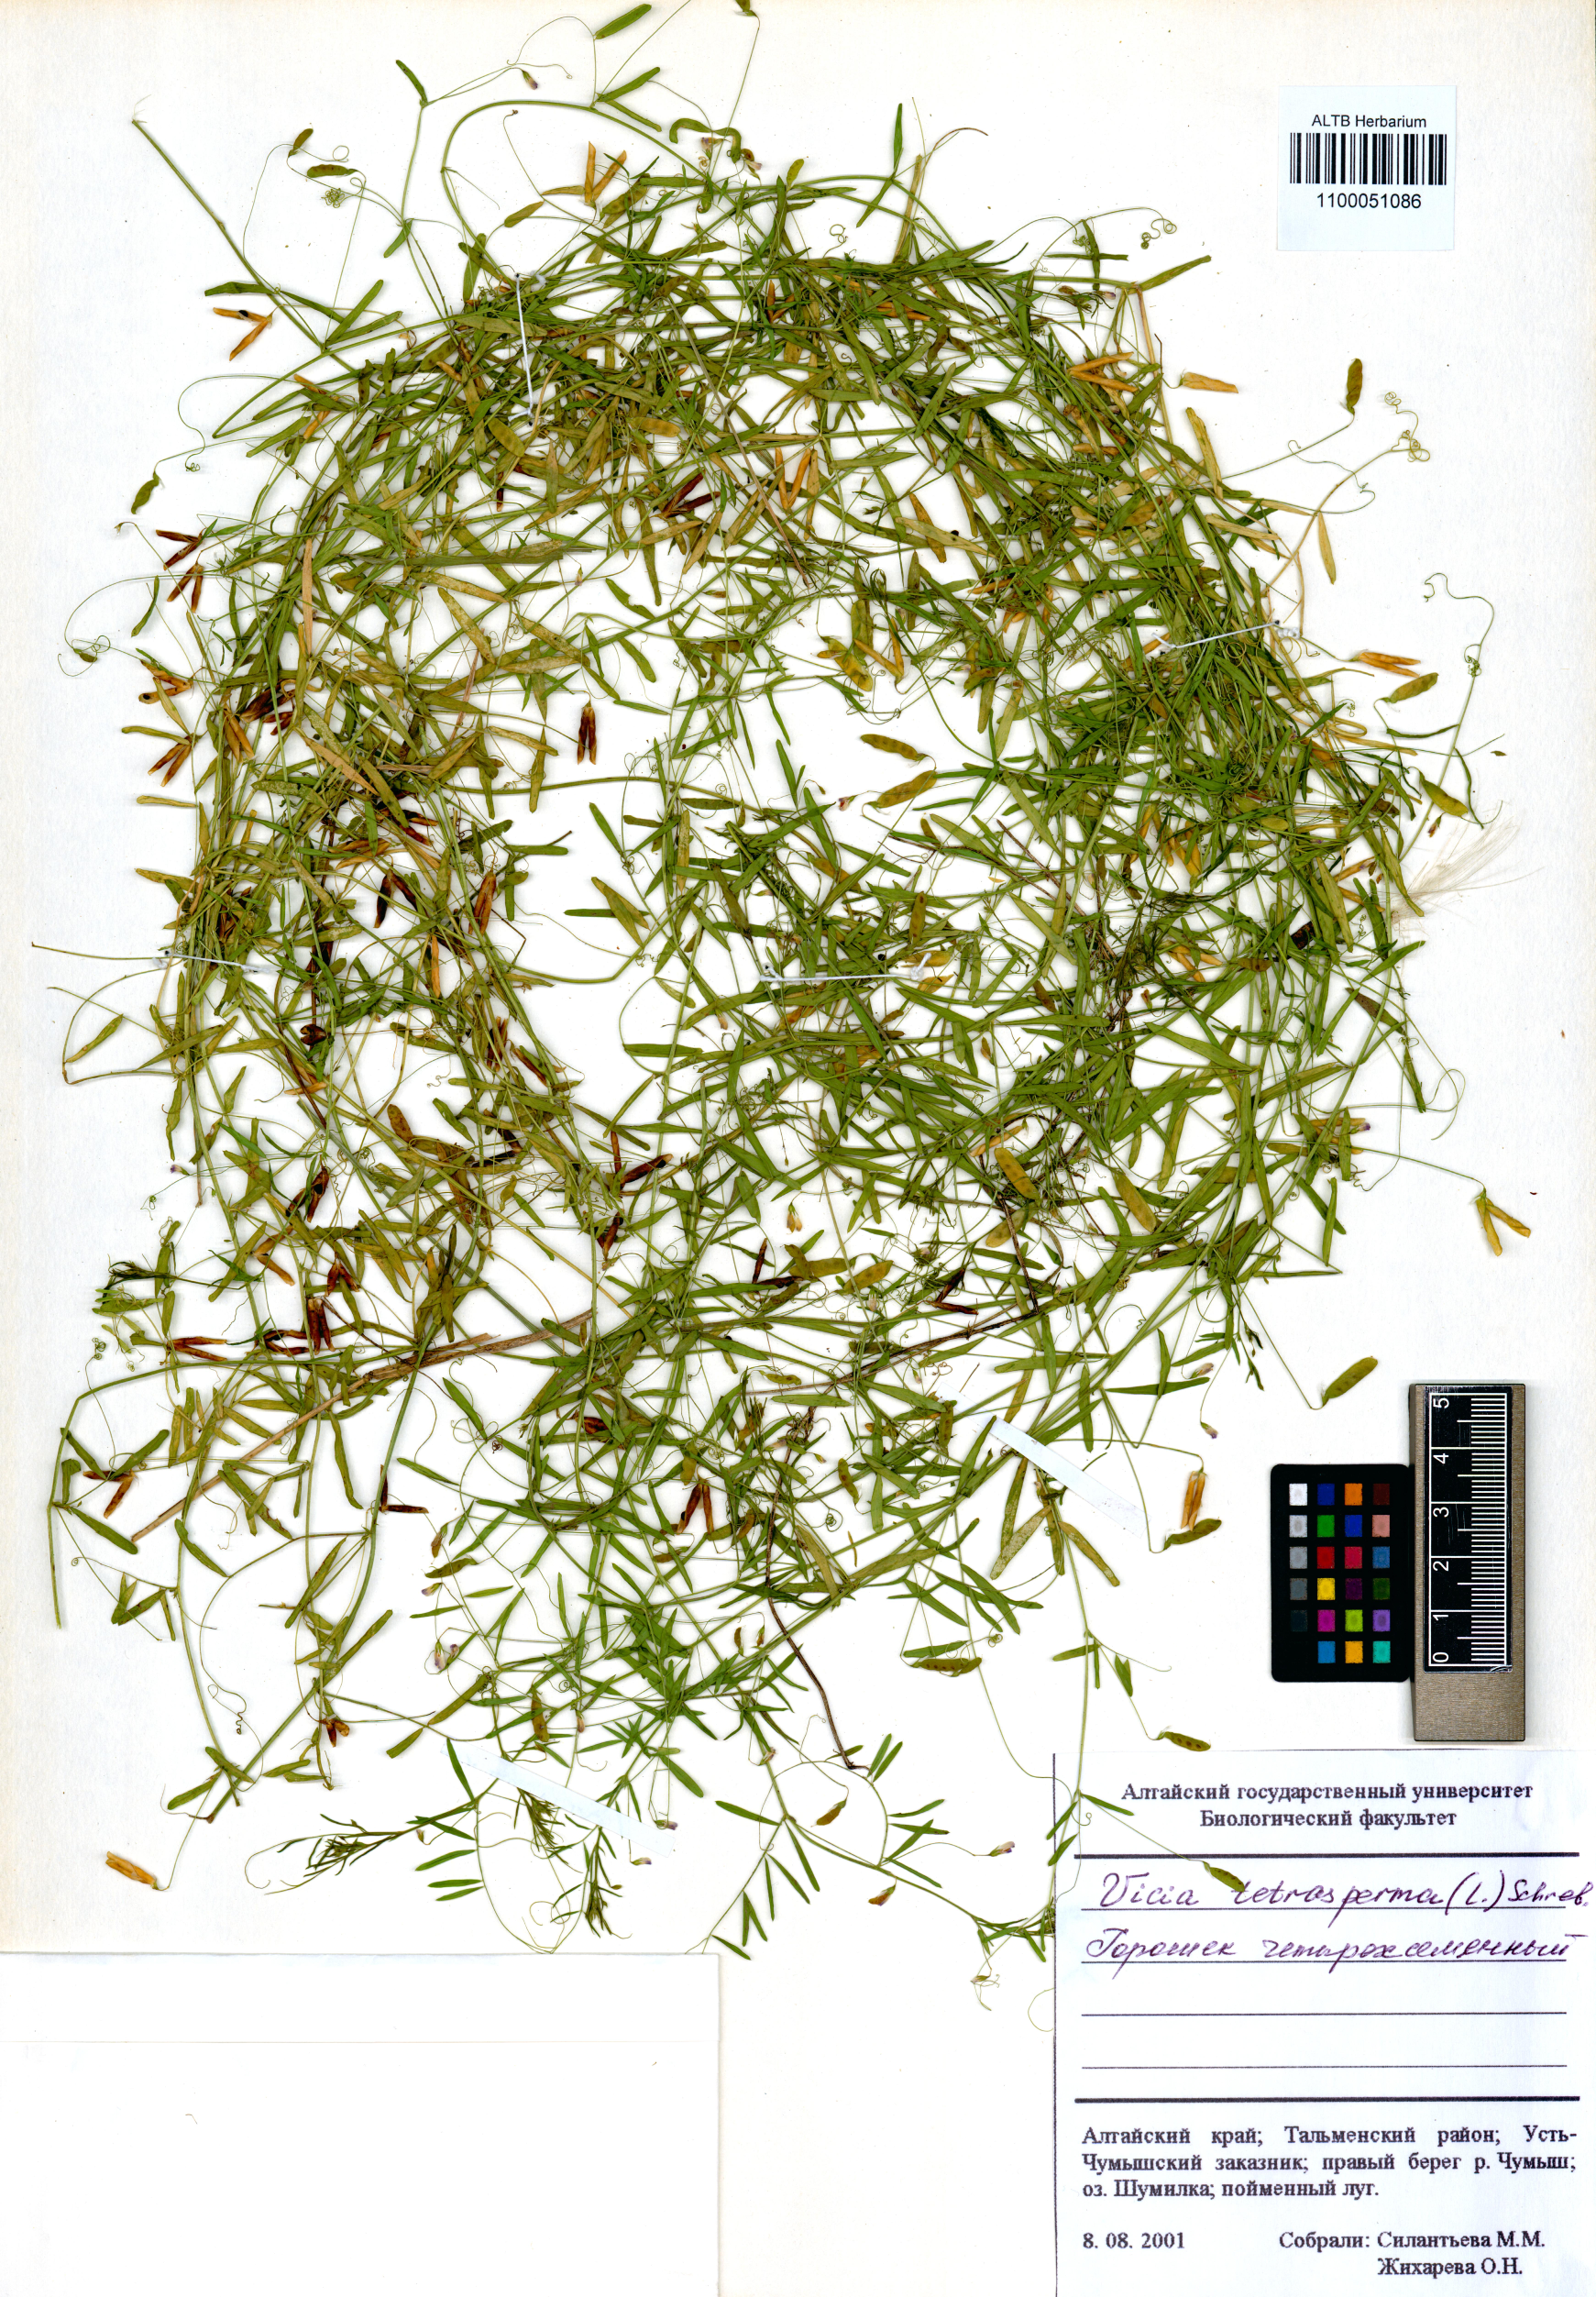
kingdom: Plantae
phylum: Tracheophyta
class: Magnoliopsida
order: Fabales
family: Fabaceae
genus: Vicia
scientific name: Vicia tetrasperma
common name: Smooth tare
